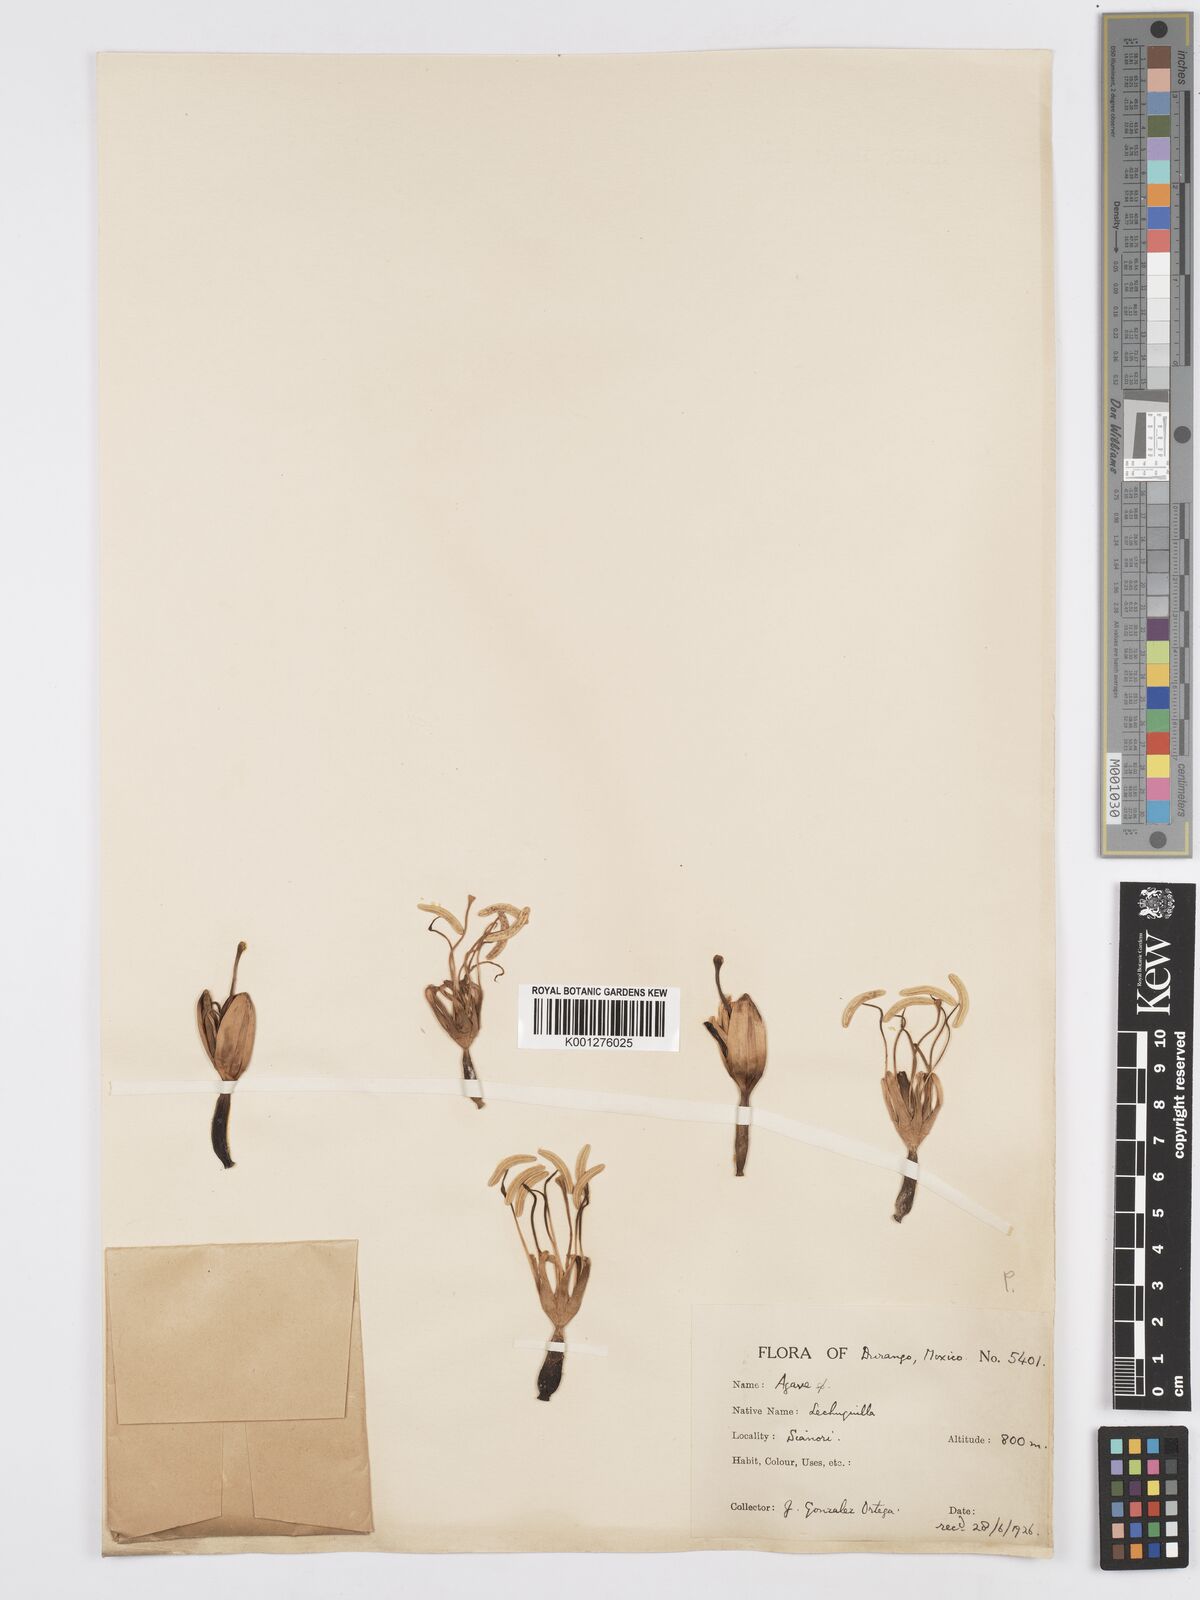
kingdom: Plantae
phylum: Tracheophyta
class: Liliopsida
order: Asparagales
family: Asparagaceae
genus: Agave
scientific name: Agave
